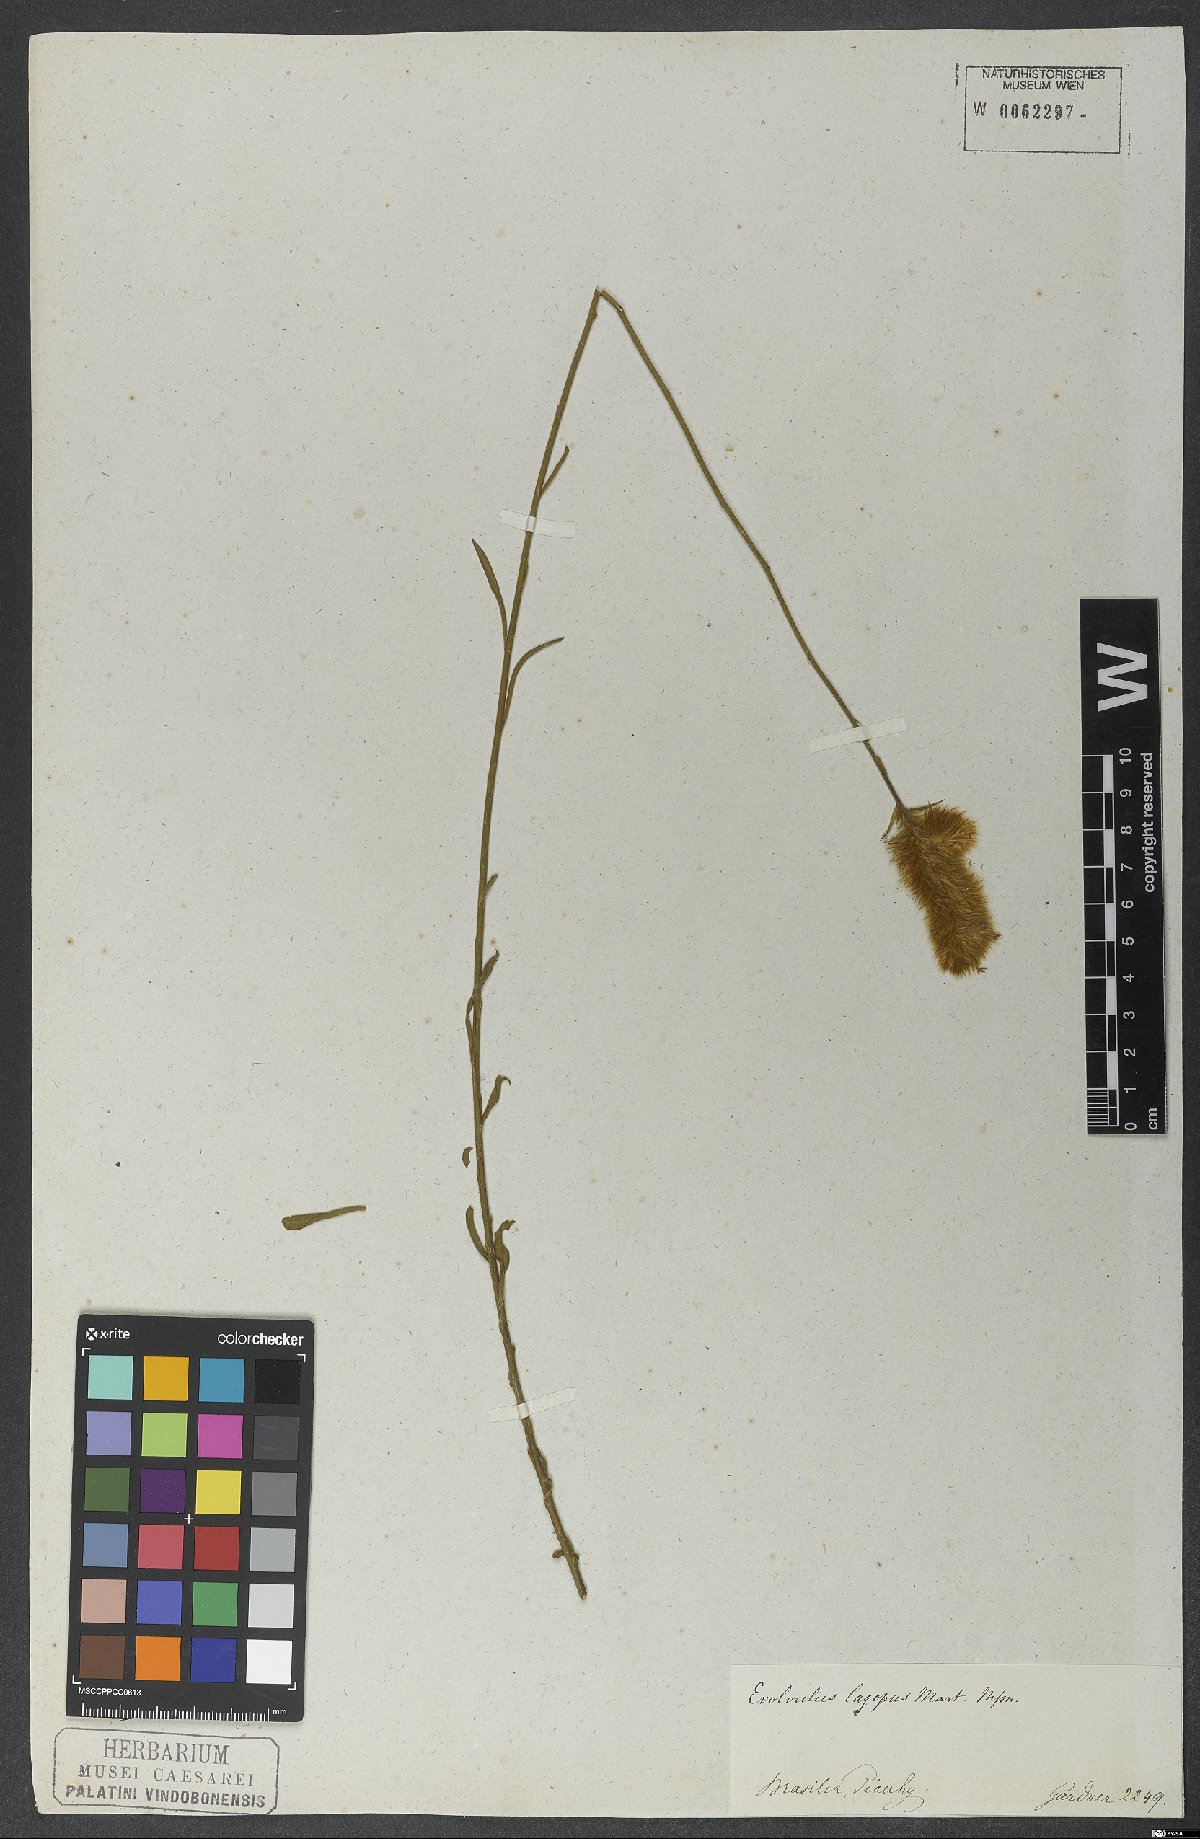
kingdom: Plantae
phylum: Tracheophyta
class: Magnoliopsida
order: Solanales
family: Convolvulaceae
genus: Evolvulus
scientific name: Evolvulus lagopus
